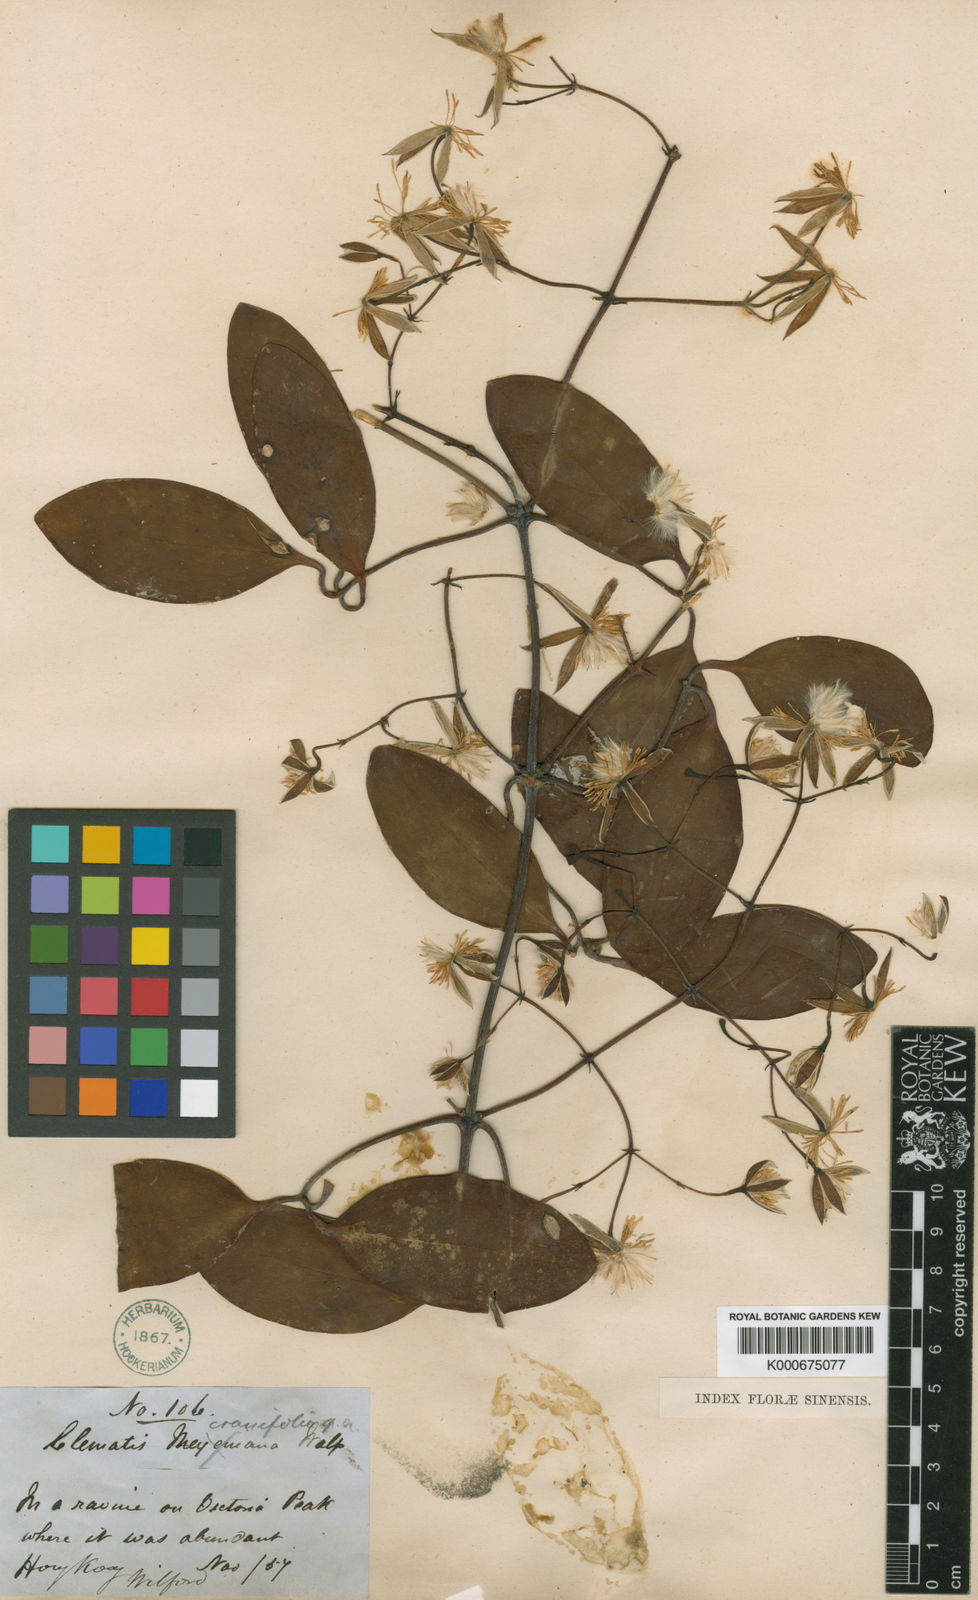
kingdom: Plantae
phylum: Tracheophyta
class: Magnoliopsida
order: Ranunculales
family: Ranunculaceae
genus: Clematis
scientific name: Clematis crassifolia
